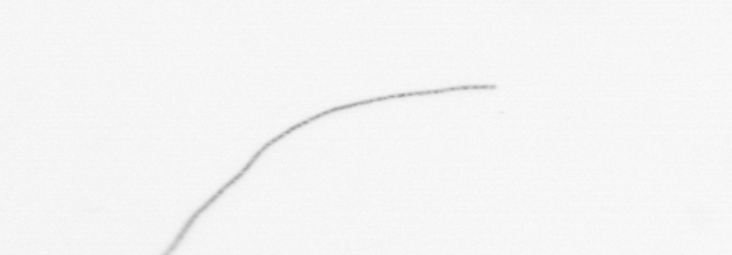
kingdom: Chromista
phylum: Ochrophyta
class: Bacillariophyceae
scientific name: Bacillariophyceae
